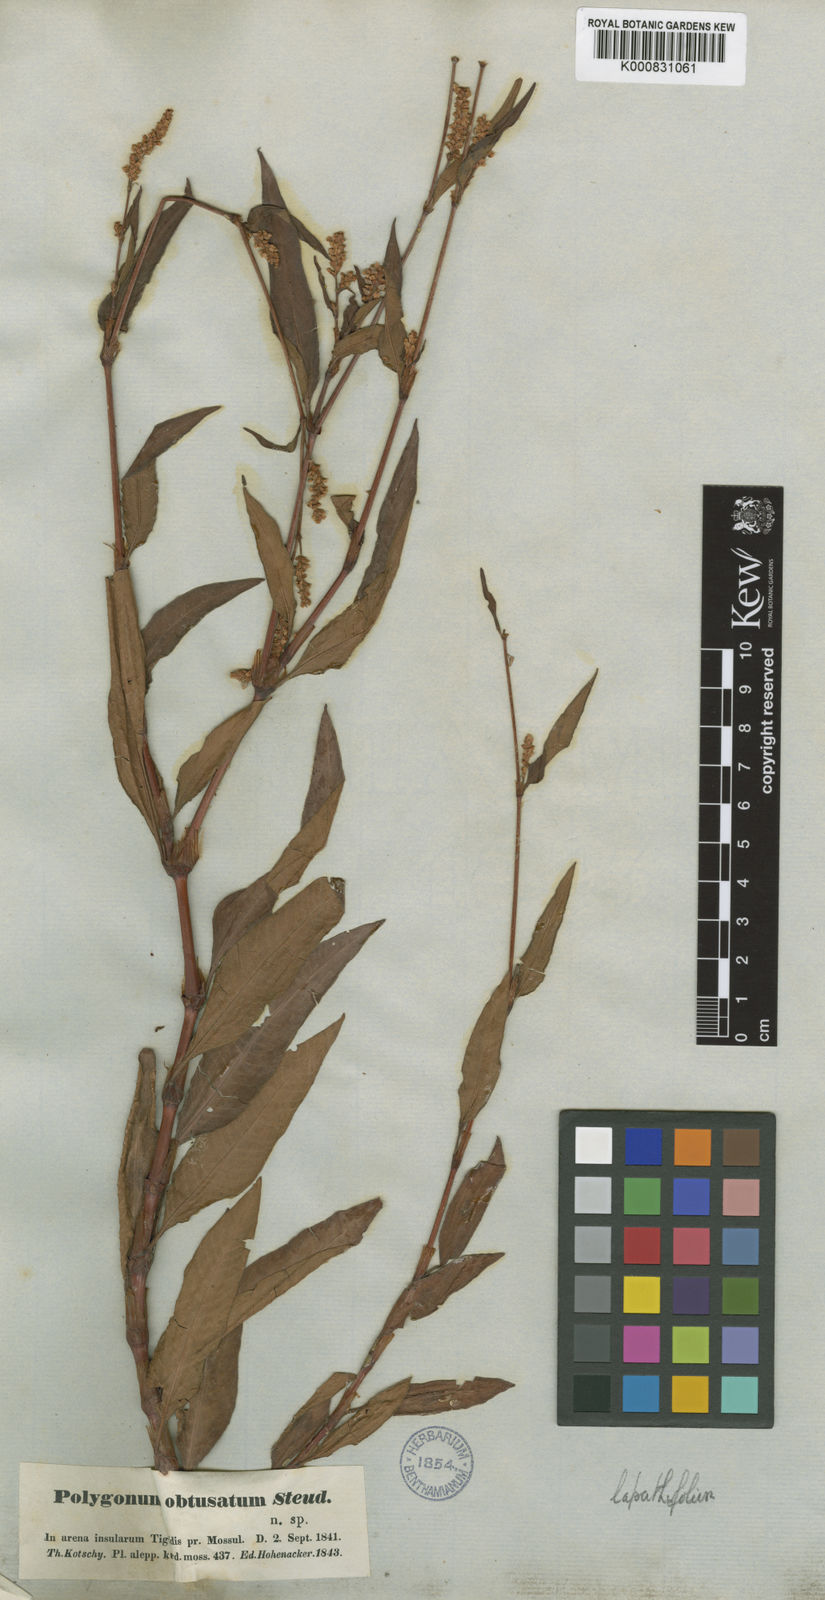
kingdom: Plantae
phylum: Tracheophyta
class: Magnoliopsida
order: Caryophyllales
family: Polygonaceae
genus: Persicaria
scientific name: Persicaria
